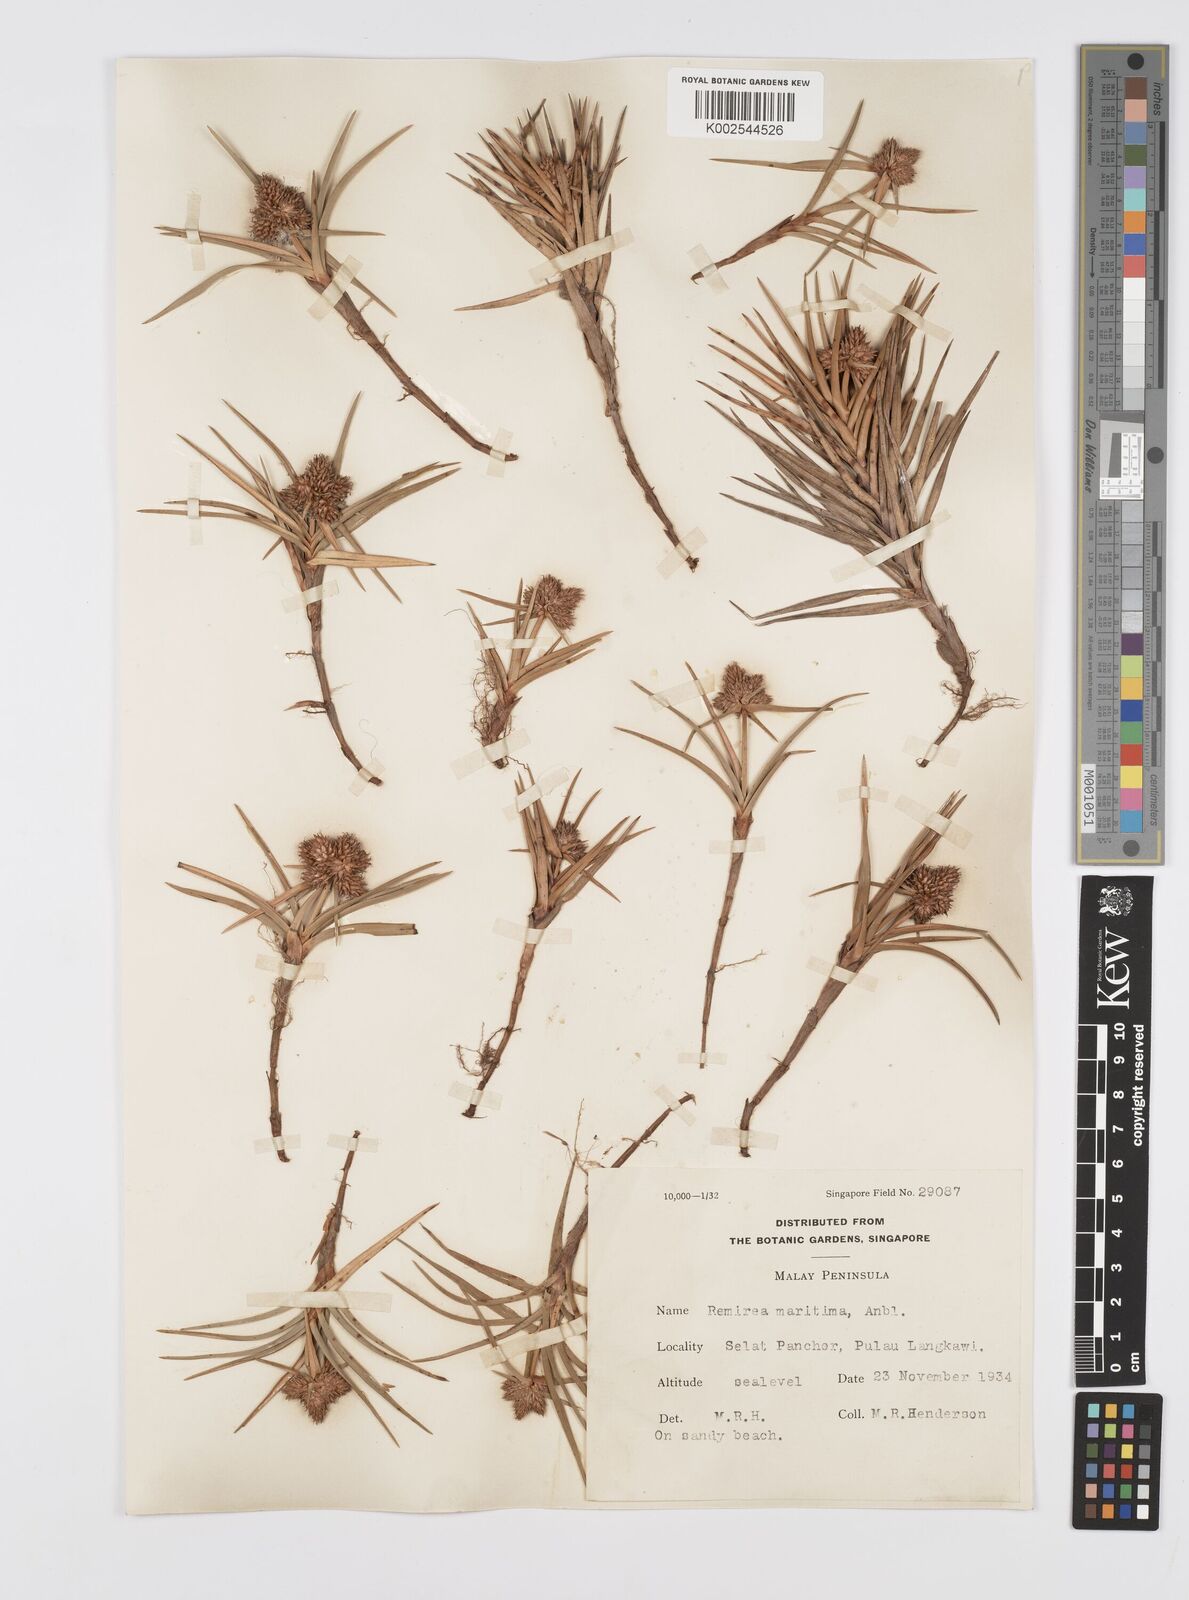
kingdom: Plantae
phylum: Tracheophyta
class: Liliopsida
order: Poales
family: Cyperaceae
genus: Cyperus
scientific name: Cyperus
